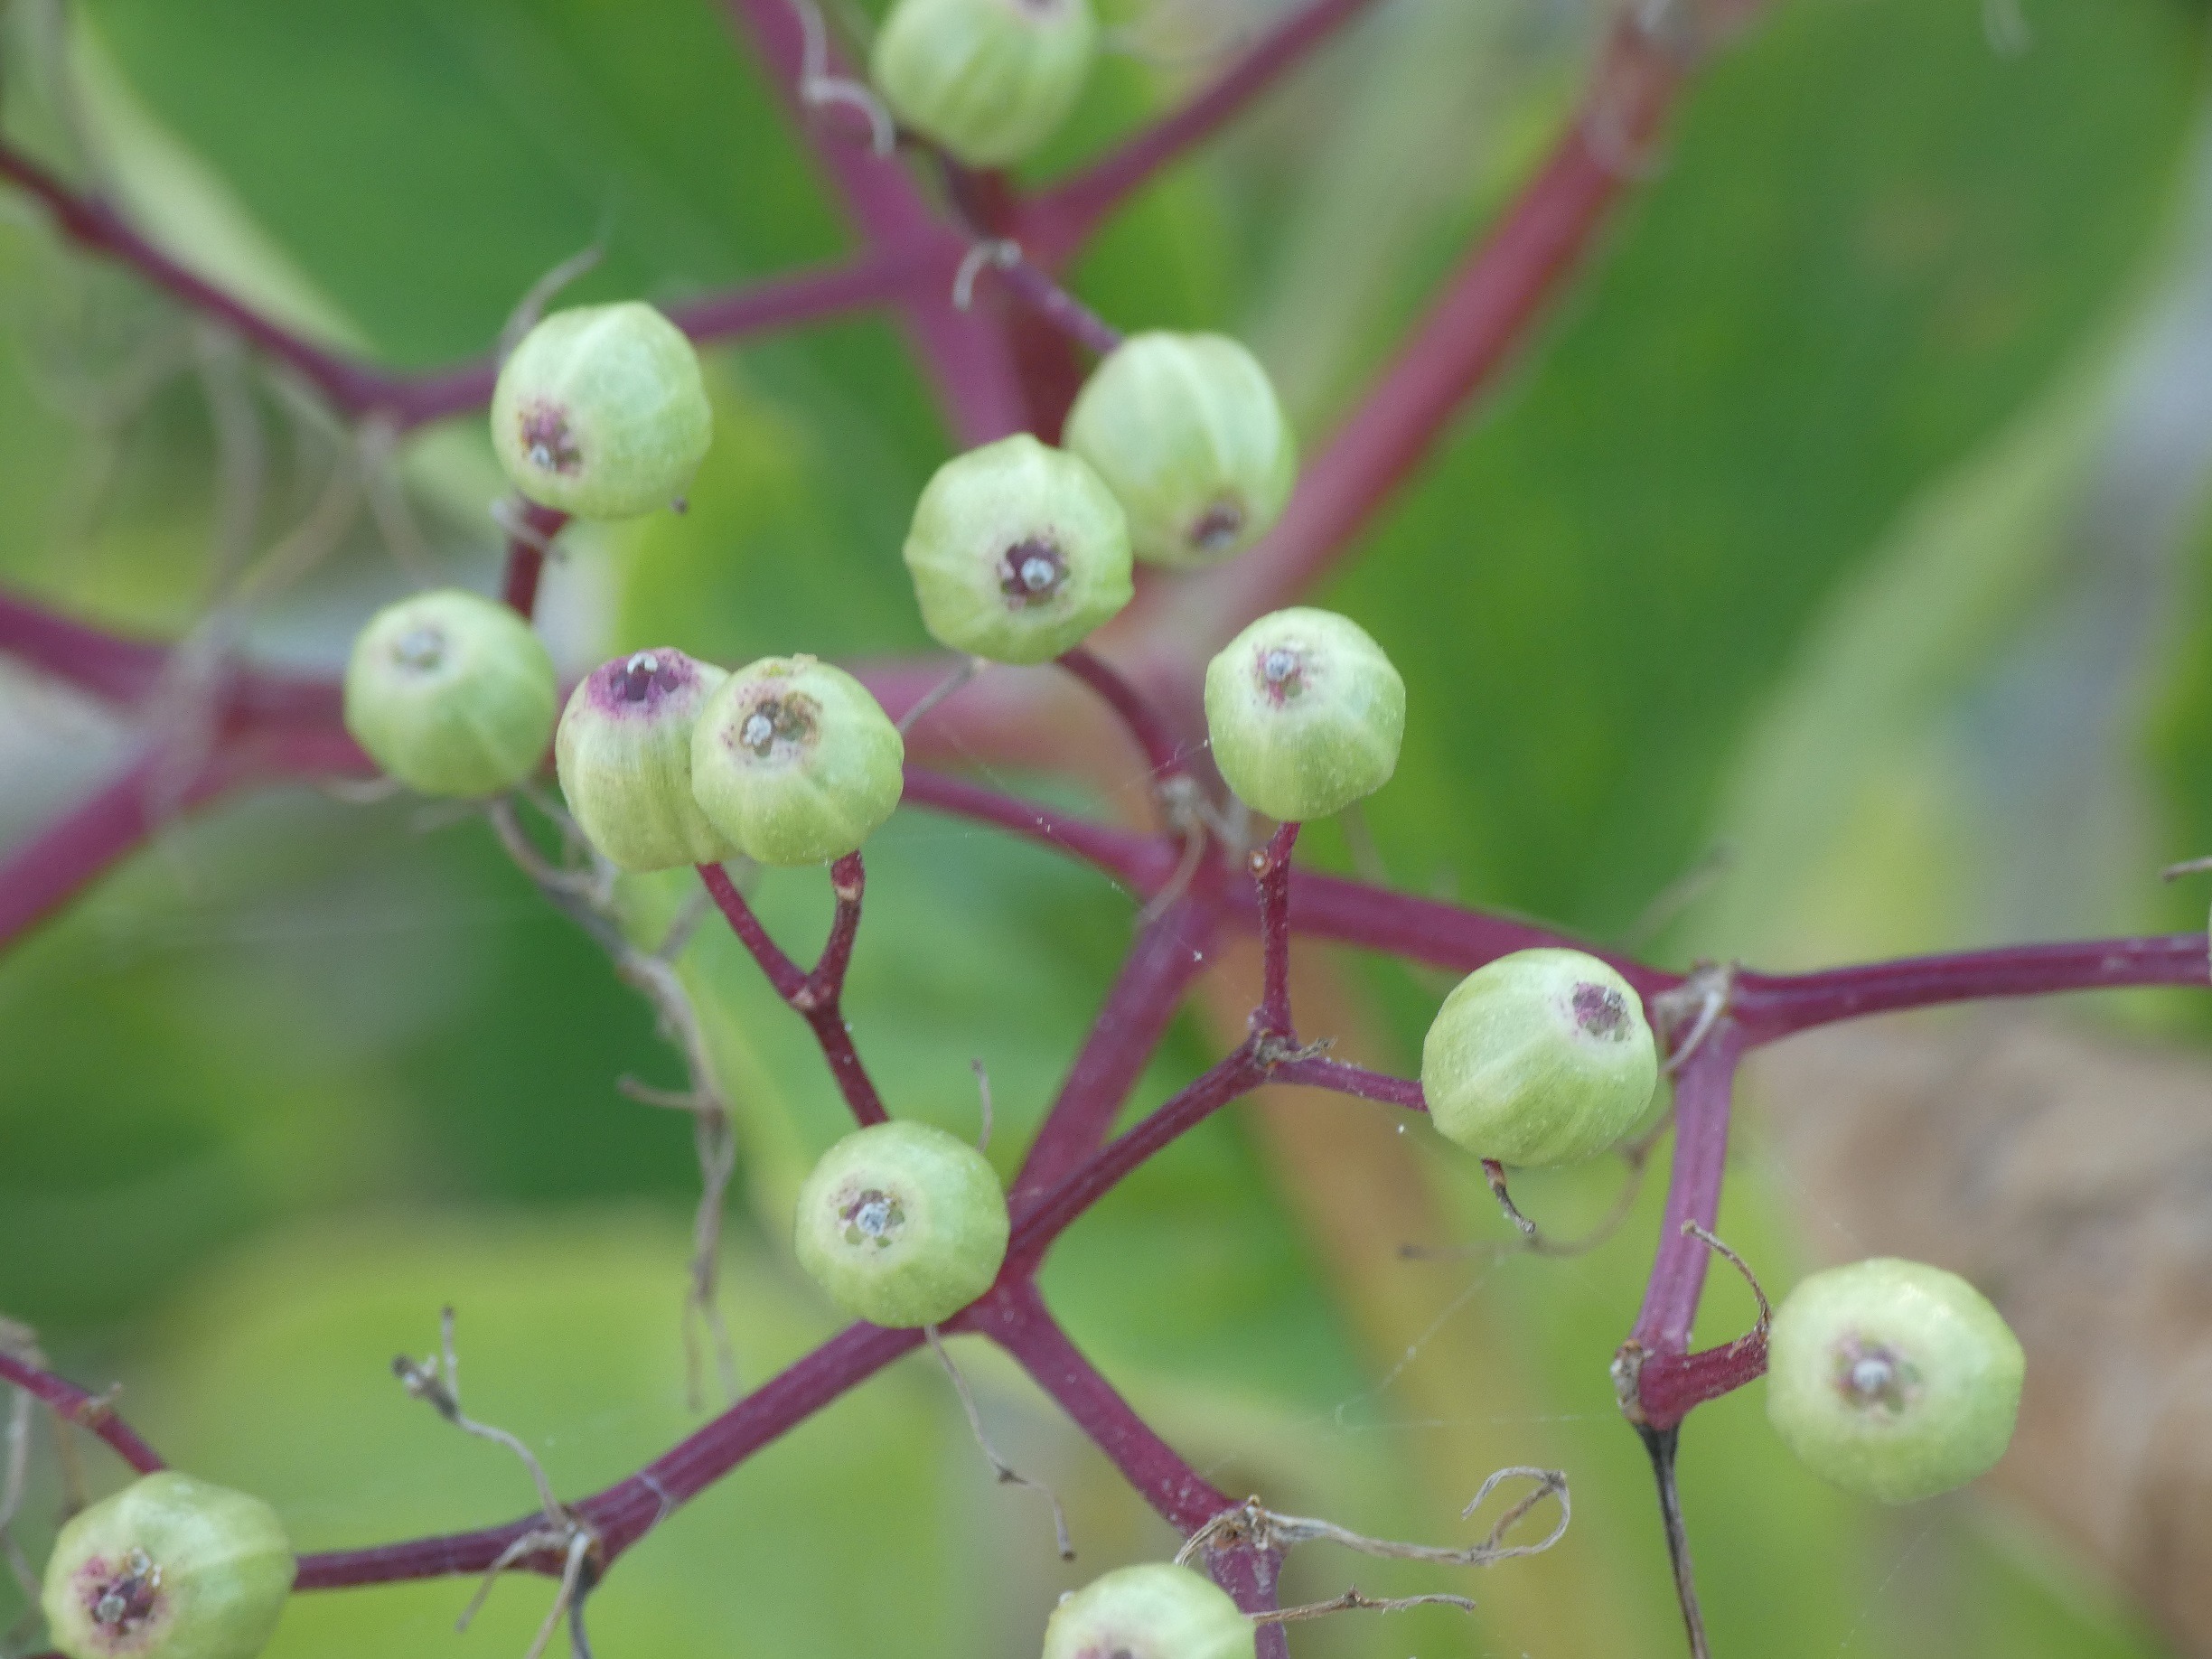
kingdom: Plantae
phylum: Tracheophyta
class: Magnoliopsida
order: Dipsacales
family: Viburnaceae
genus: Sambucus
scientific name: Sambucus nigra
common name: Almindelig hyld
